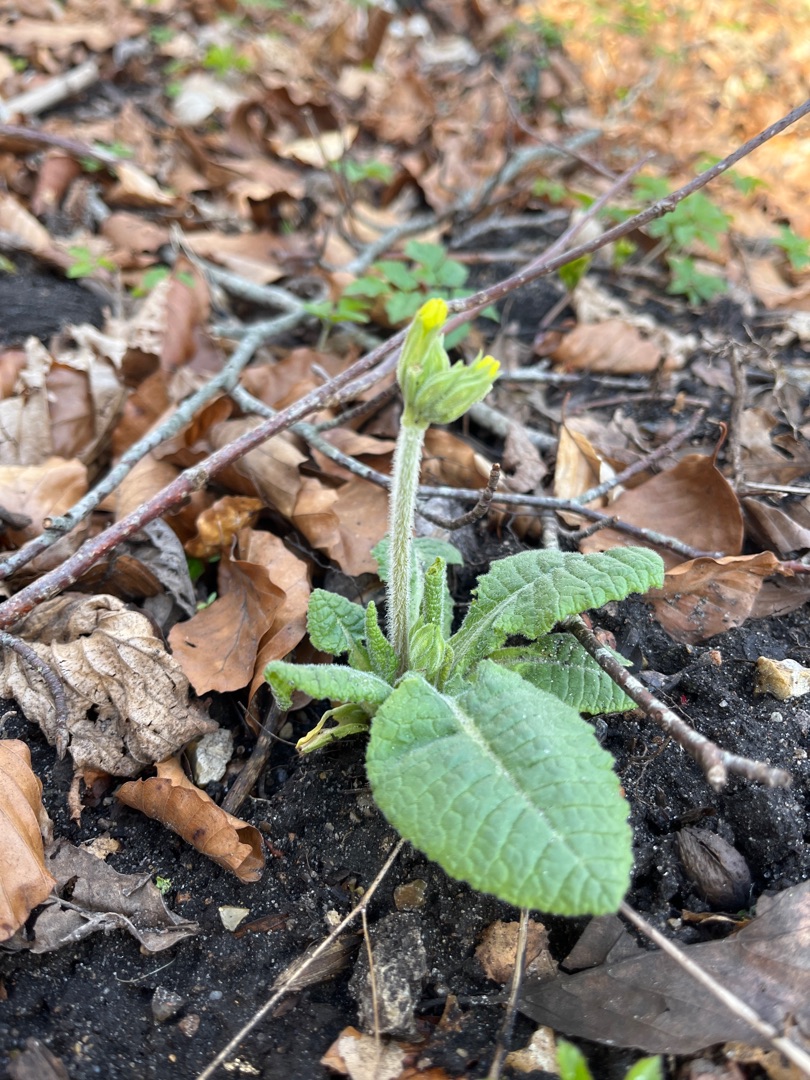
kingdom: Plantae
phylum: Tracheophyta
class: Magnoliopsida
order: Ericales
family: Primulaceae
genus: Primula
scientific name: Primula elatior
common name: Fladkravet kodriver
